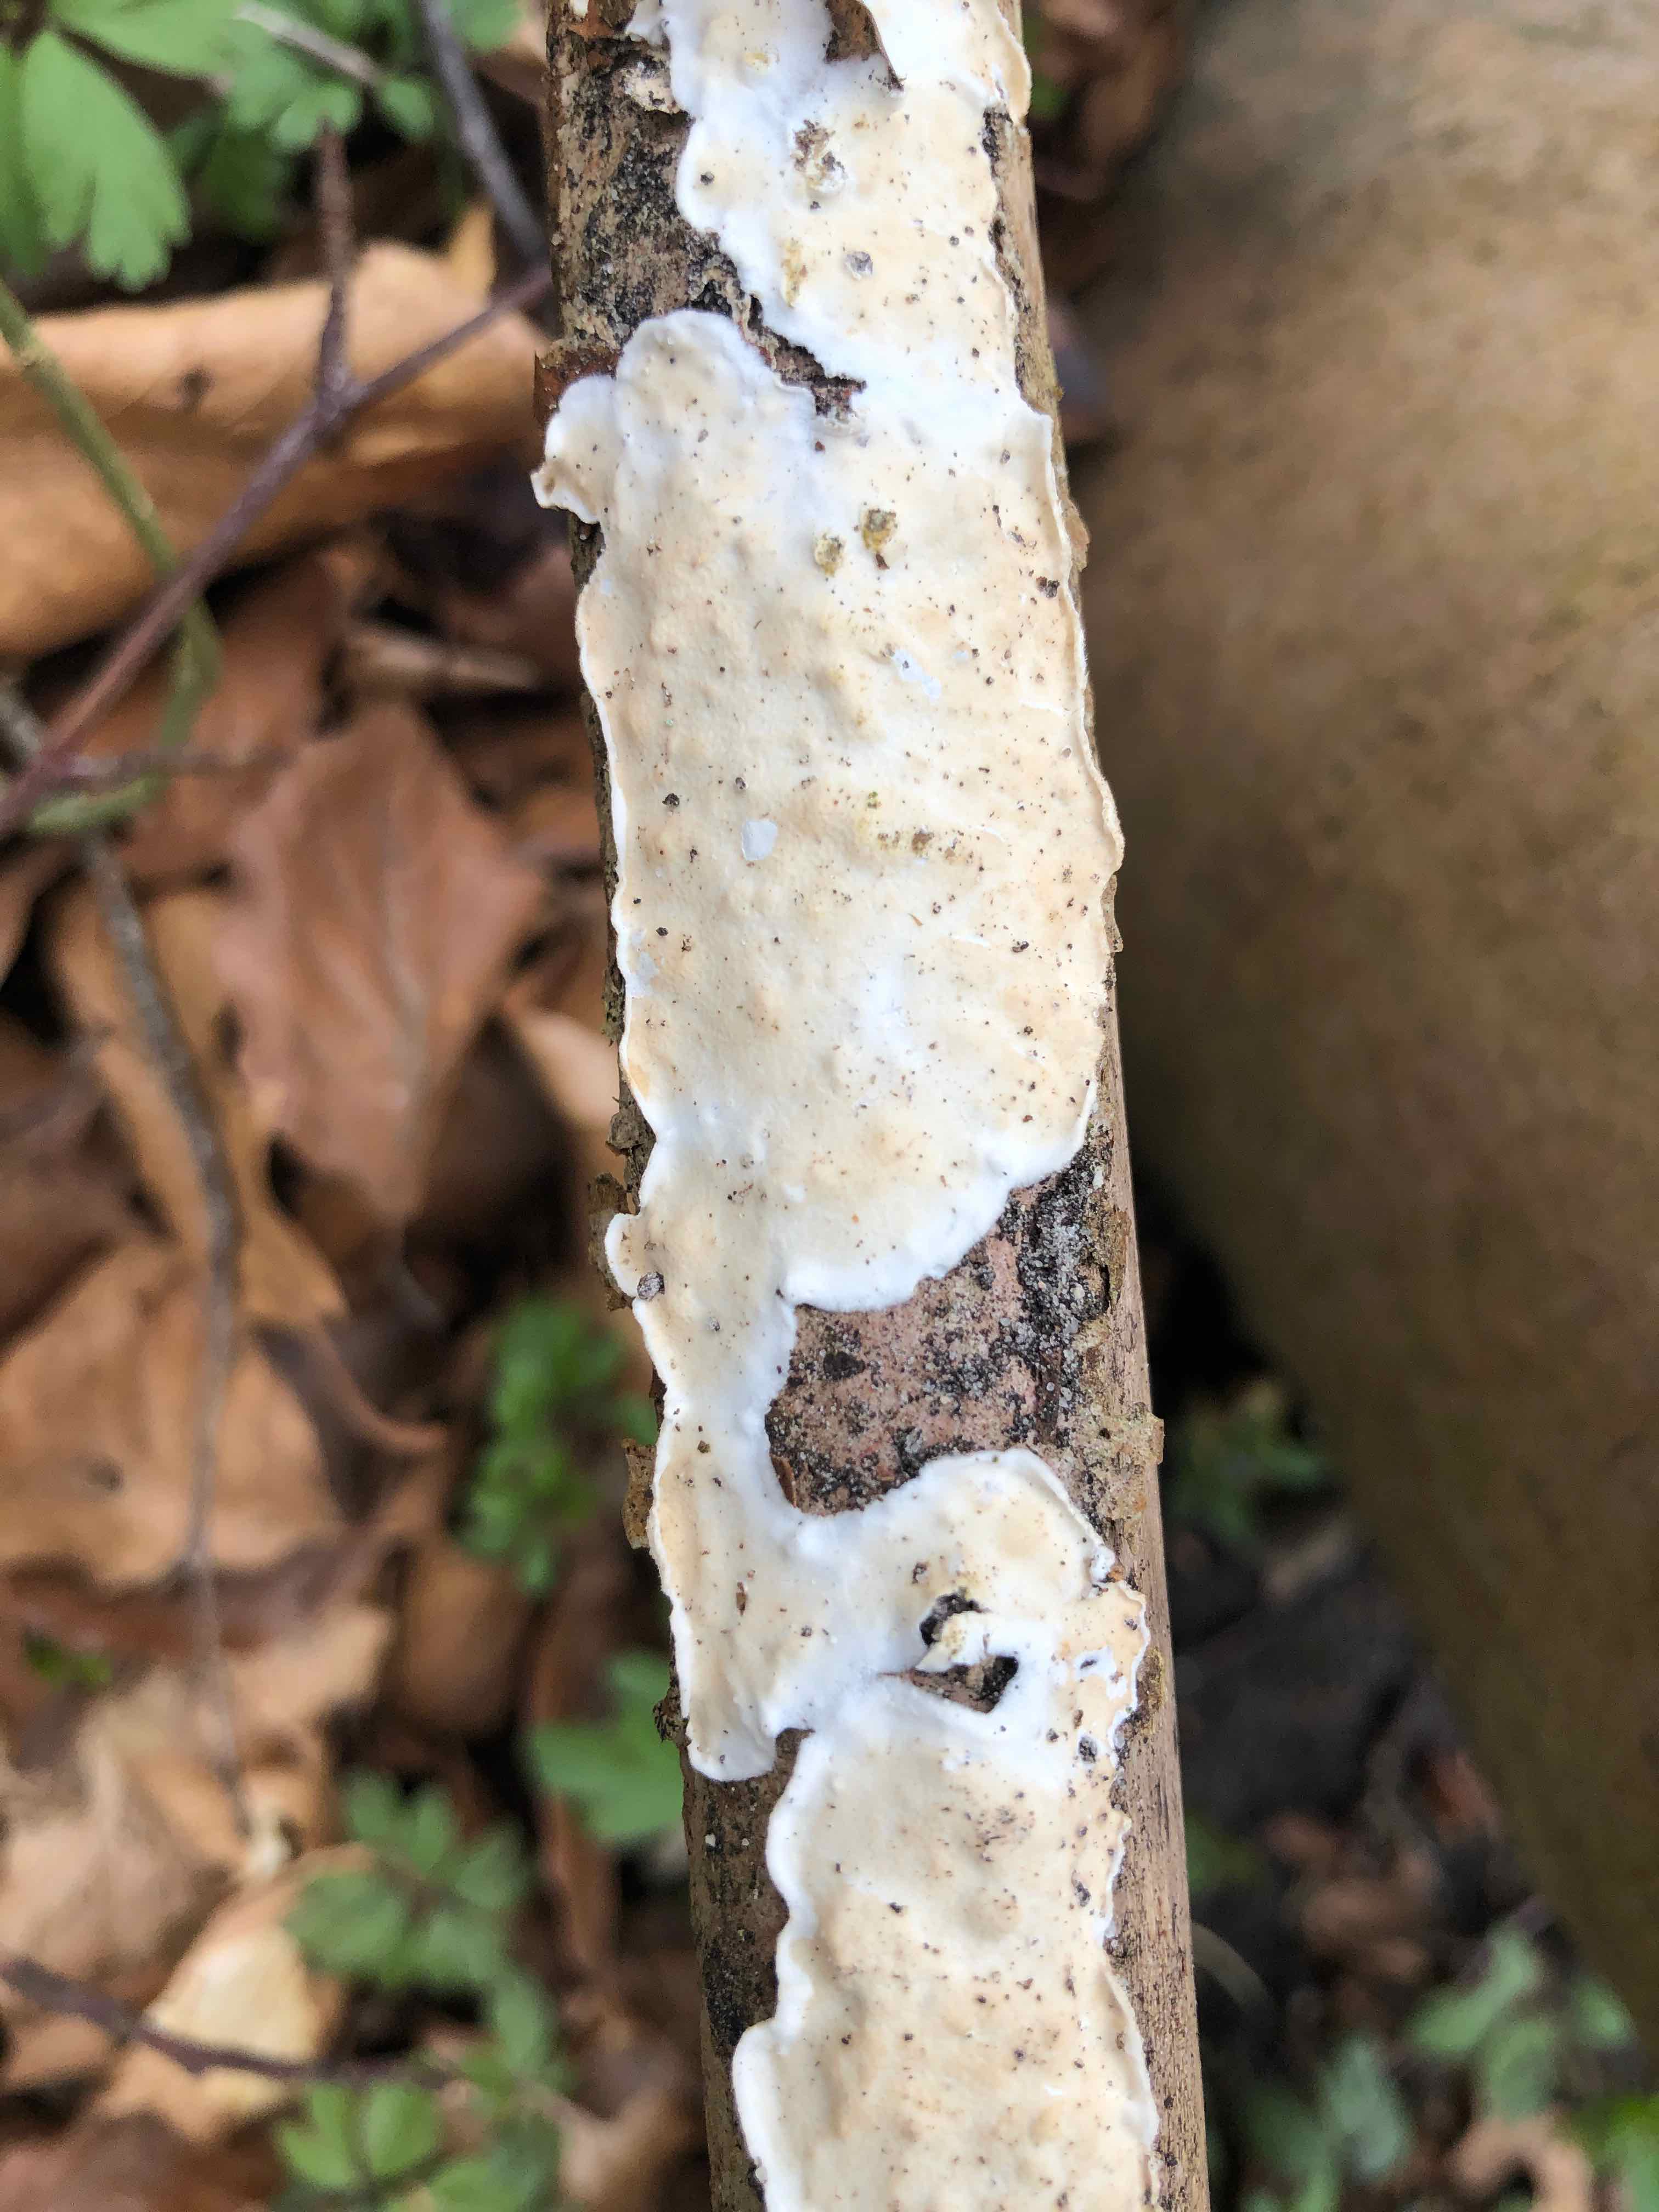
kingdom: Fungi
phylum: Basidiomycota
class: Agaricomycetes
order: Polyporales
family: Irpicaceae
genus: Byssomerulius
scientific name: Byssomerulius corium
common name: læder-åresvamp
